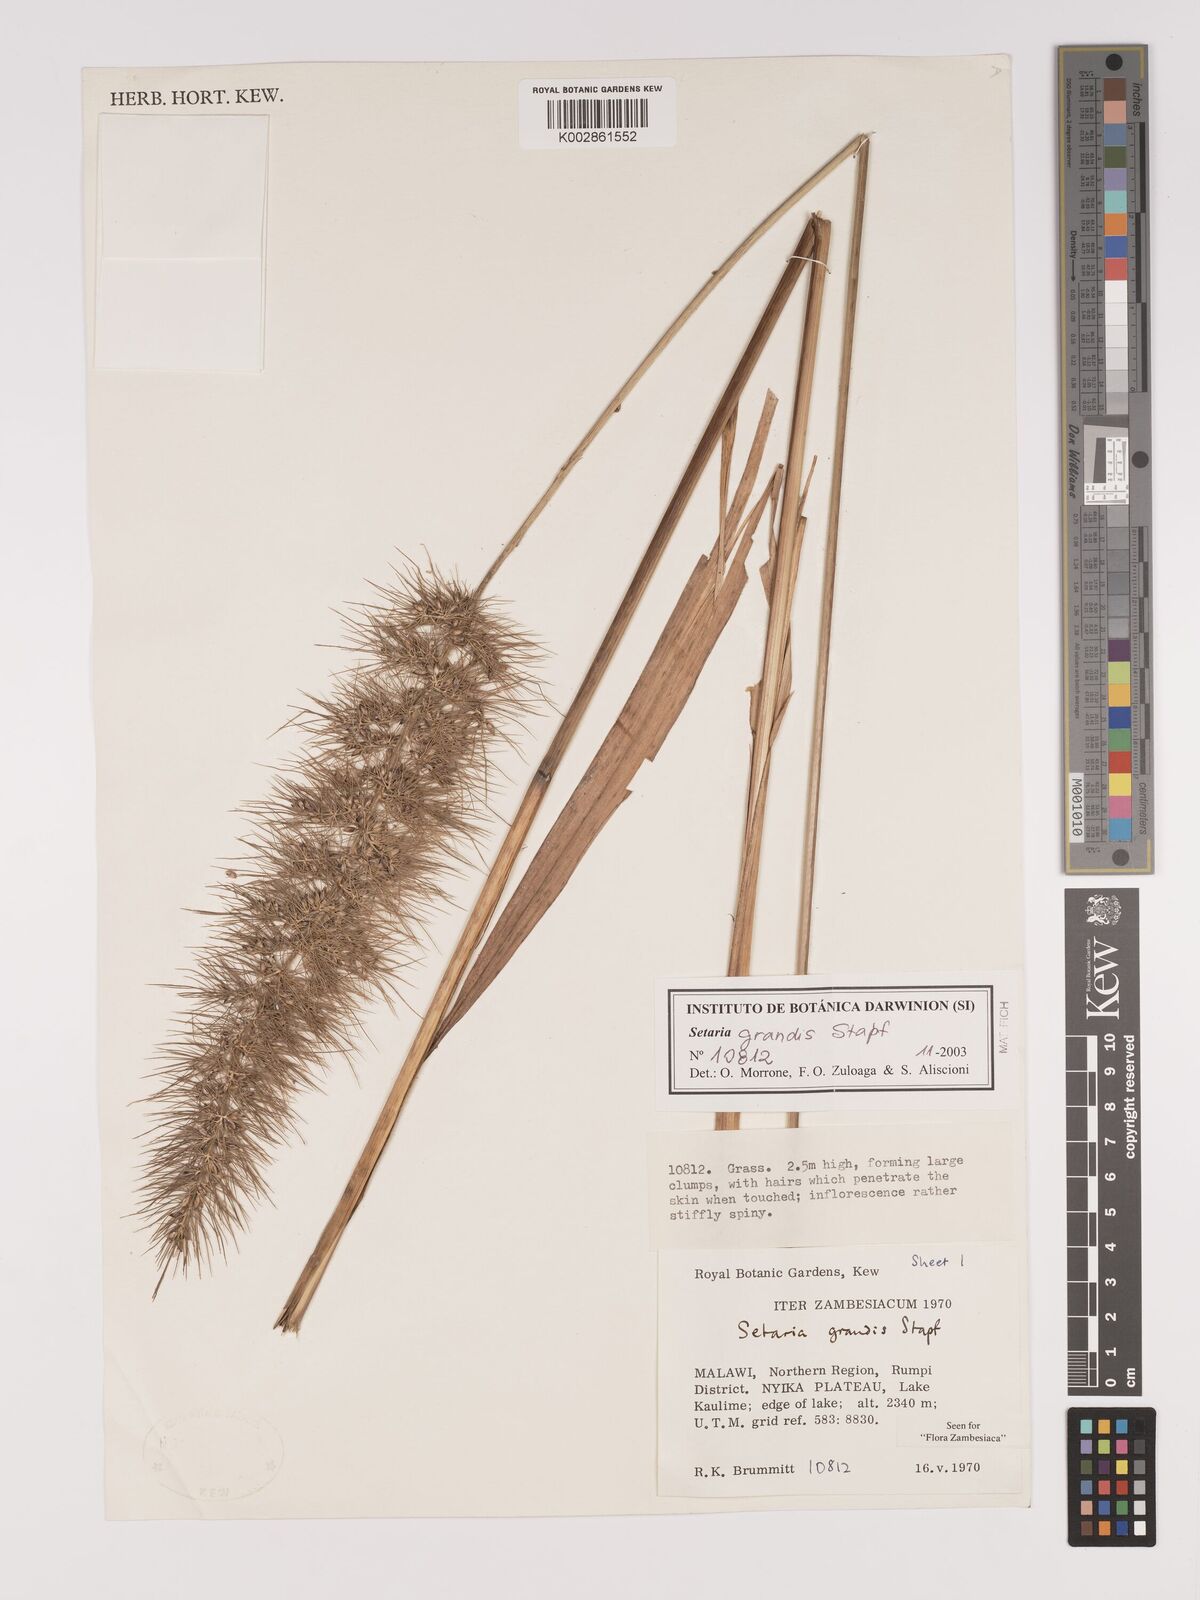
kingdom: Plantae
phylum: Tracheophyta
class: Liliopsida
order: Poales
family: Poaceae
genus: Setaria
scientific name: Setaria grandis
